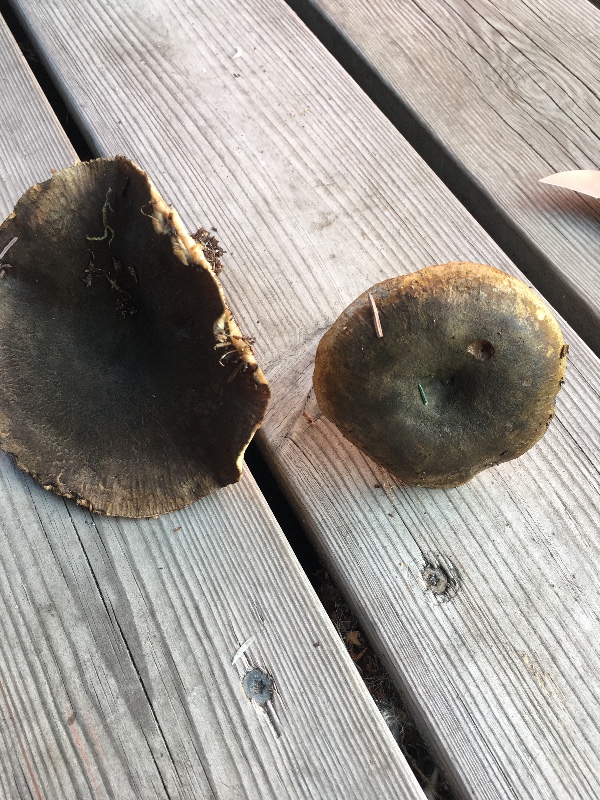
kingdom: Fungi
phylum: Basidiomycota
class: Agaricomycetes
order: Russulales
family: Russulaceae
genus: Lactarius
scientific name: Lactarius necator
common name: manddraber-mælkehat
